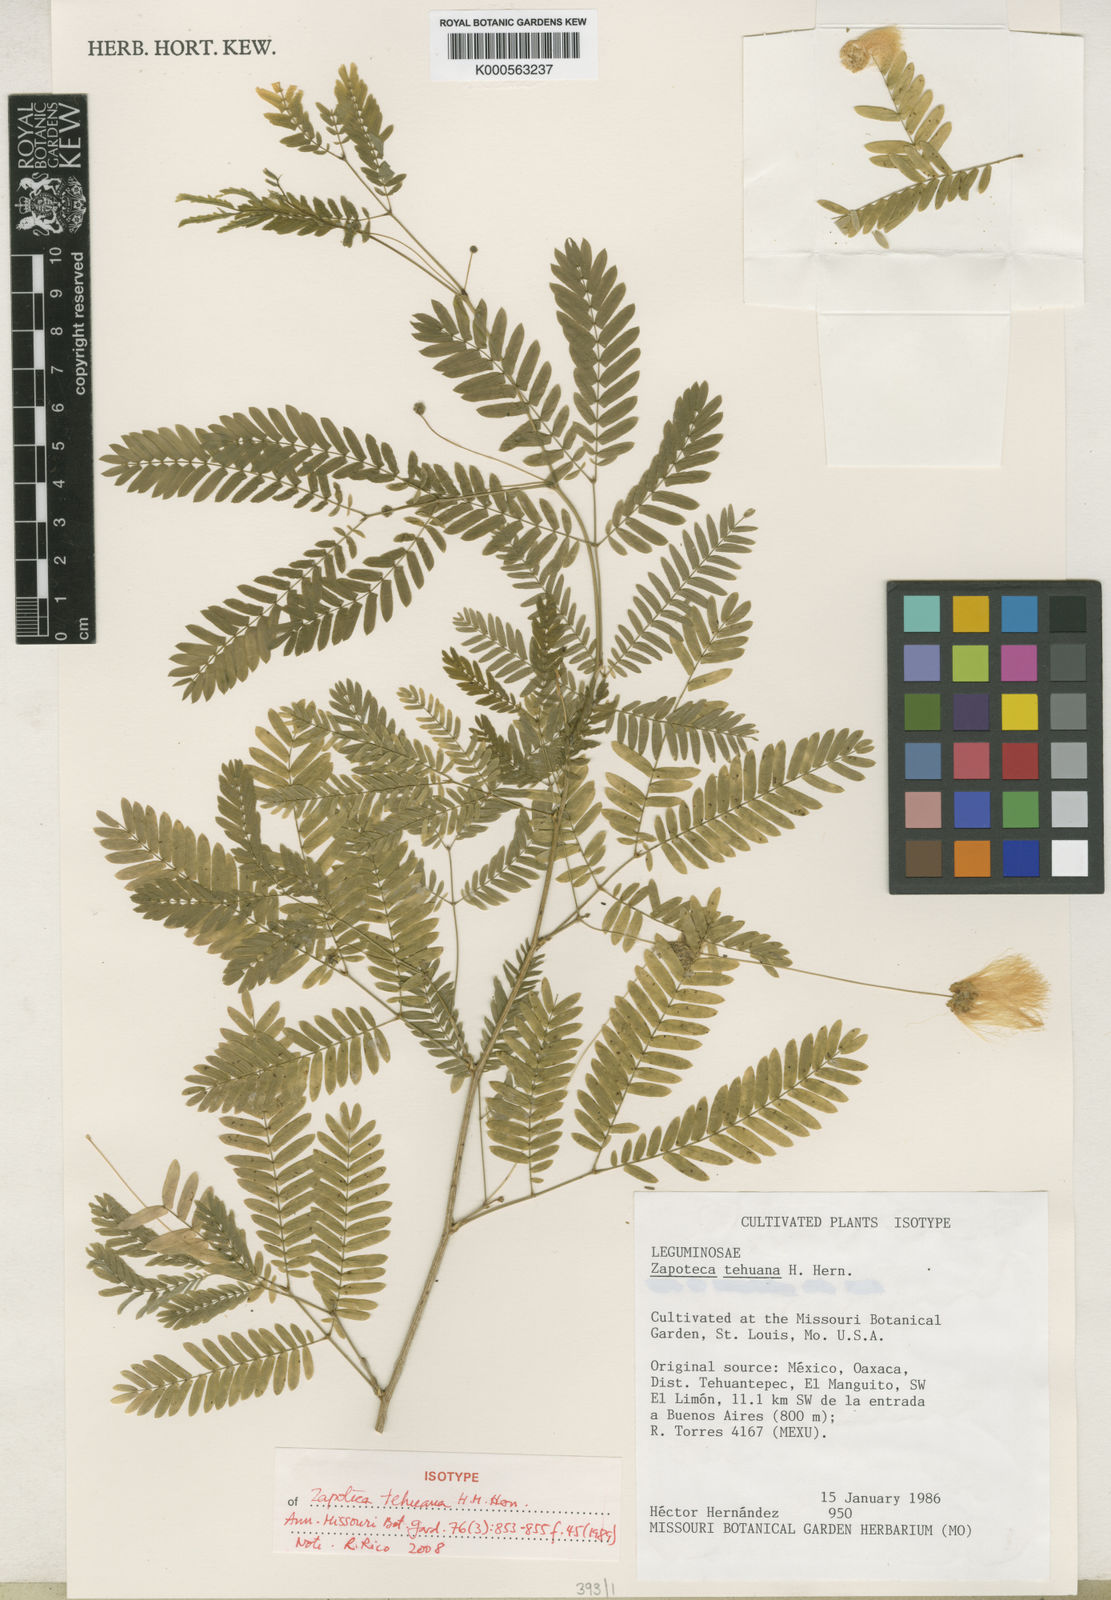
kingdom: Plantae
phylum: Tracheophyta
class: Magnoliopsida
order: Fabales
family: Fabaceae
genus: Zapoteca
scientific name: Zapoteca tehuana
